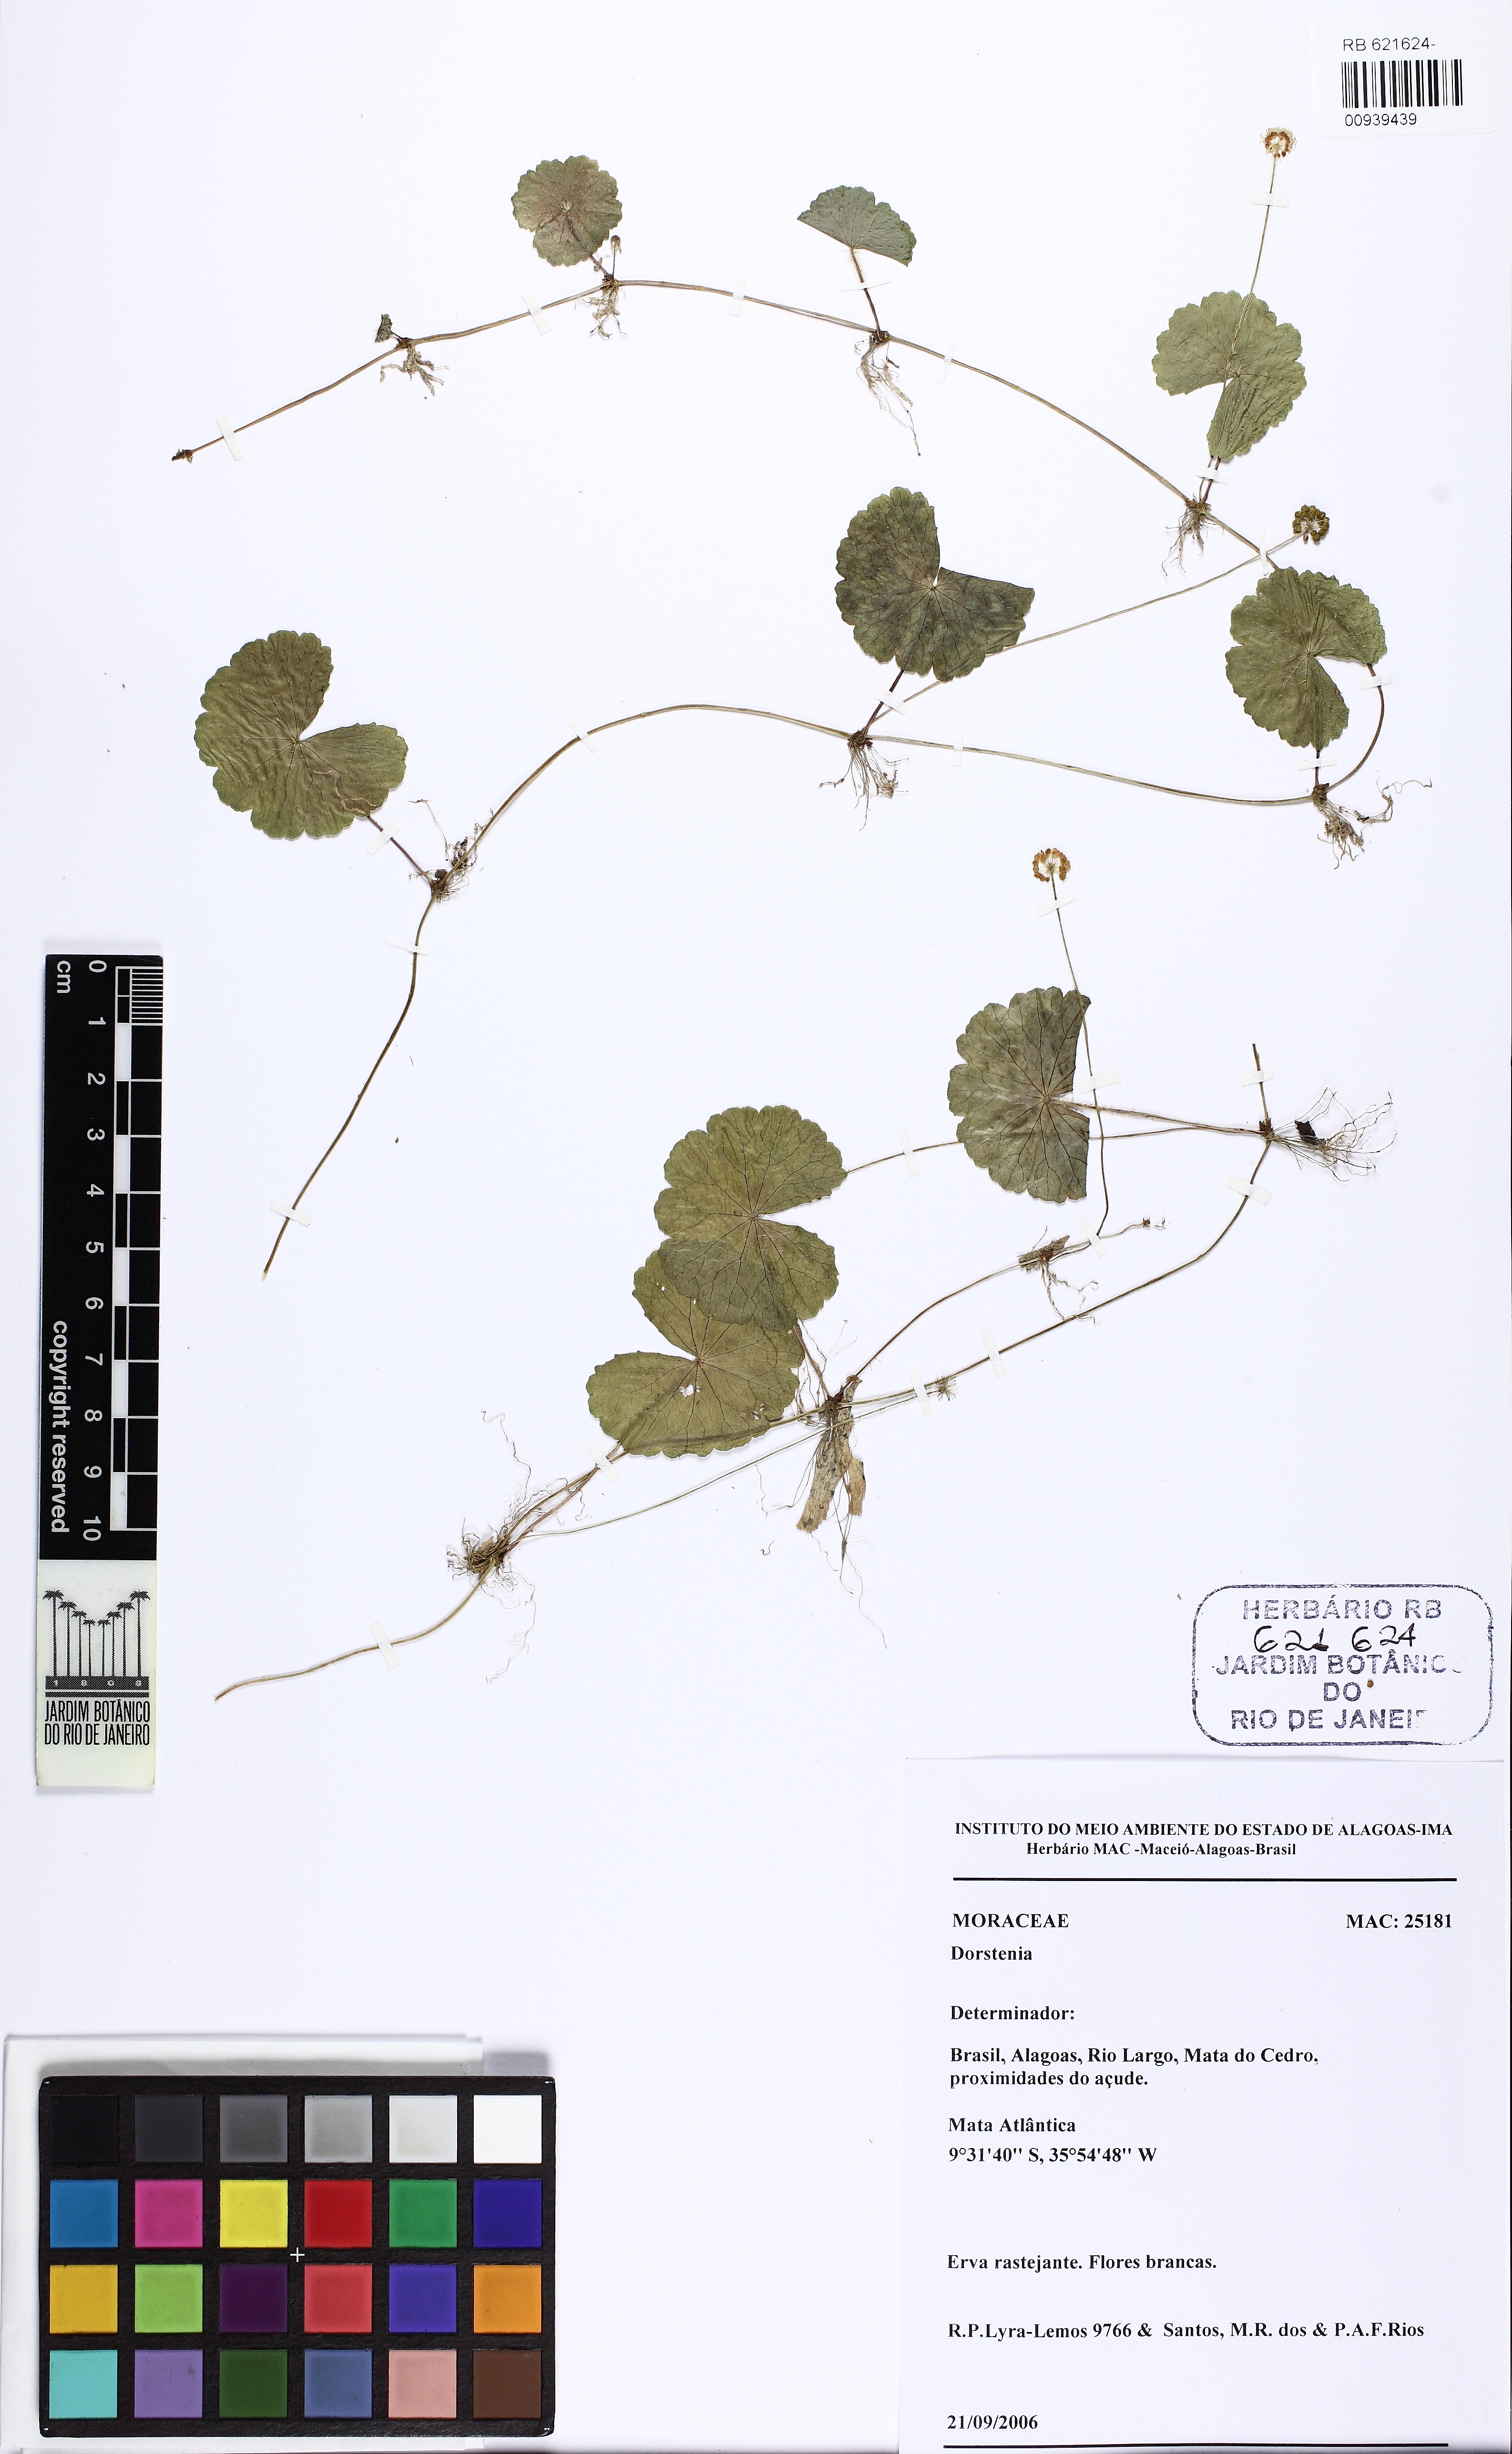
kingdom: Plantae
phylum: Tracheophyta
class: Magnoliopsida
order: Rosales
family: Moraceae
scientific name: Moraceae
